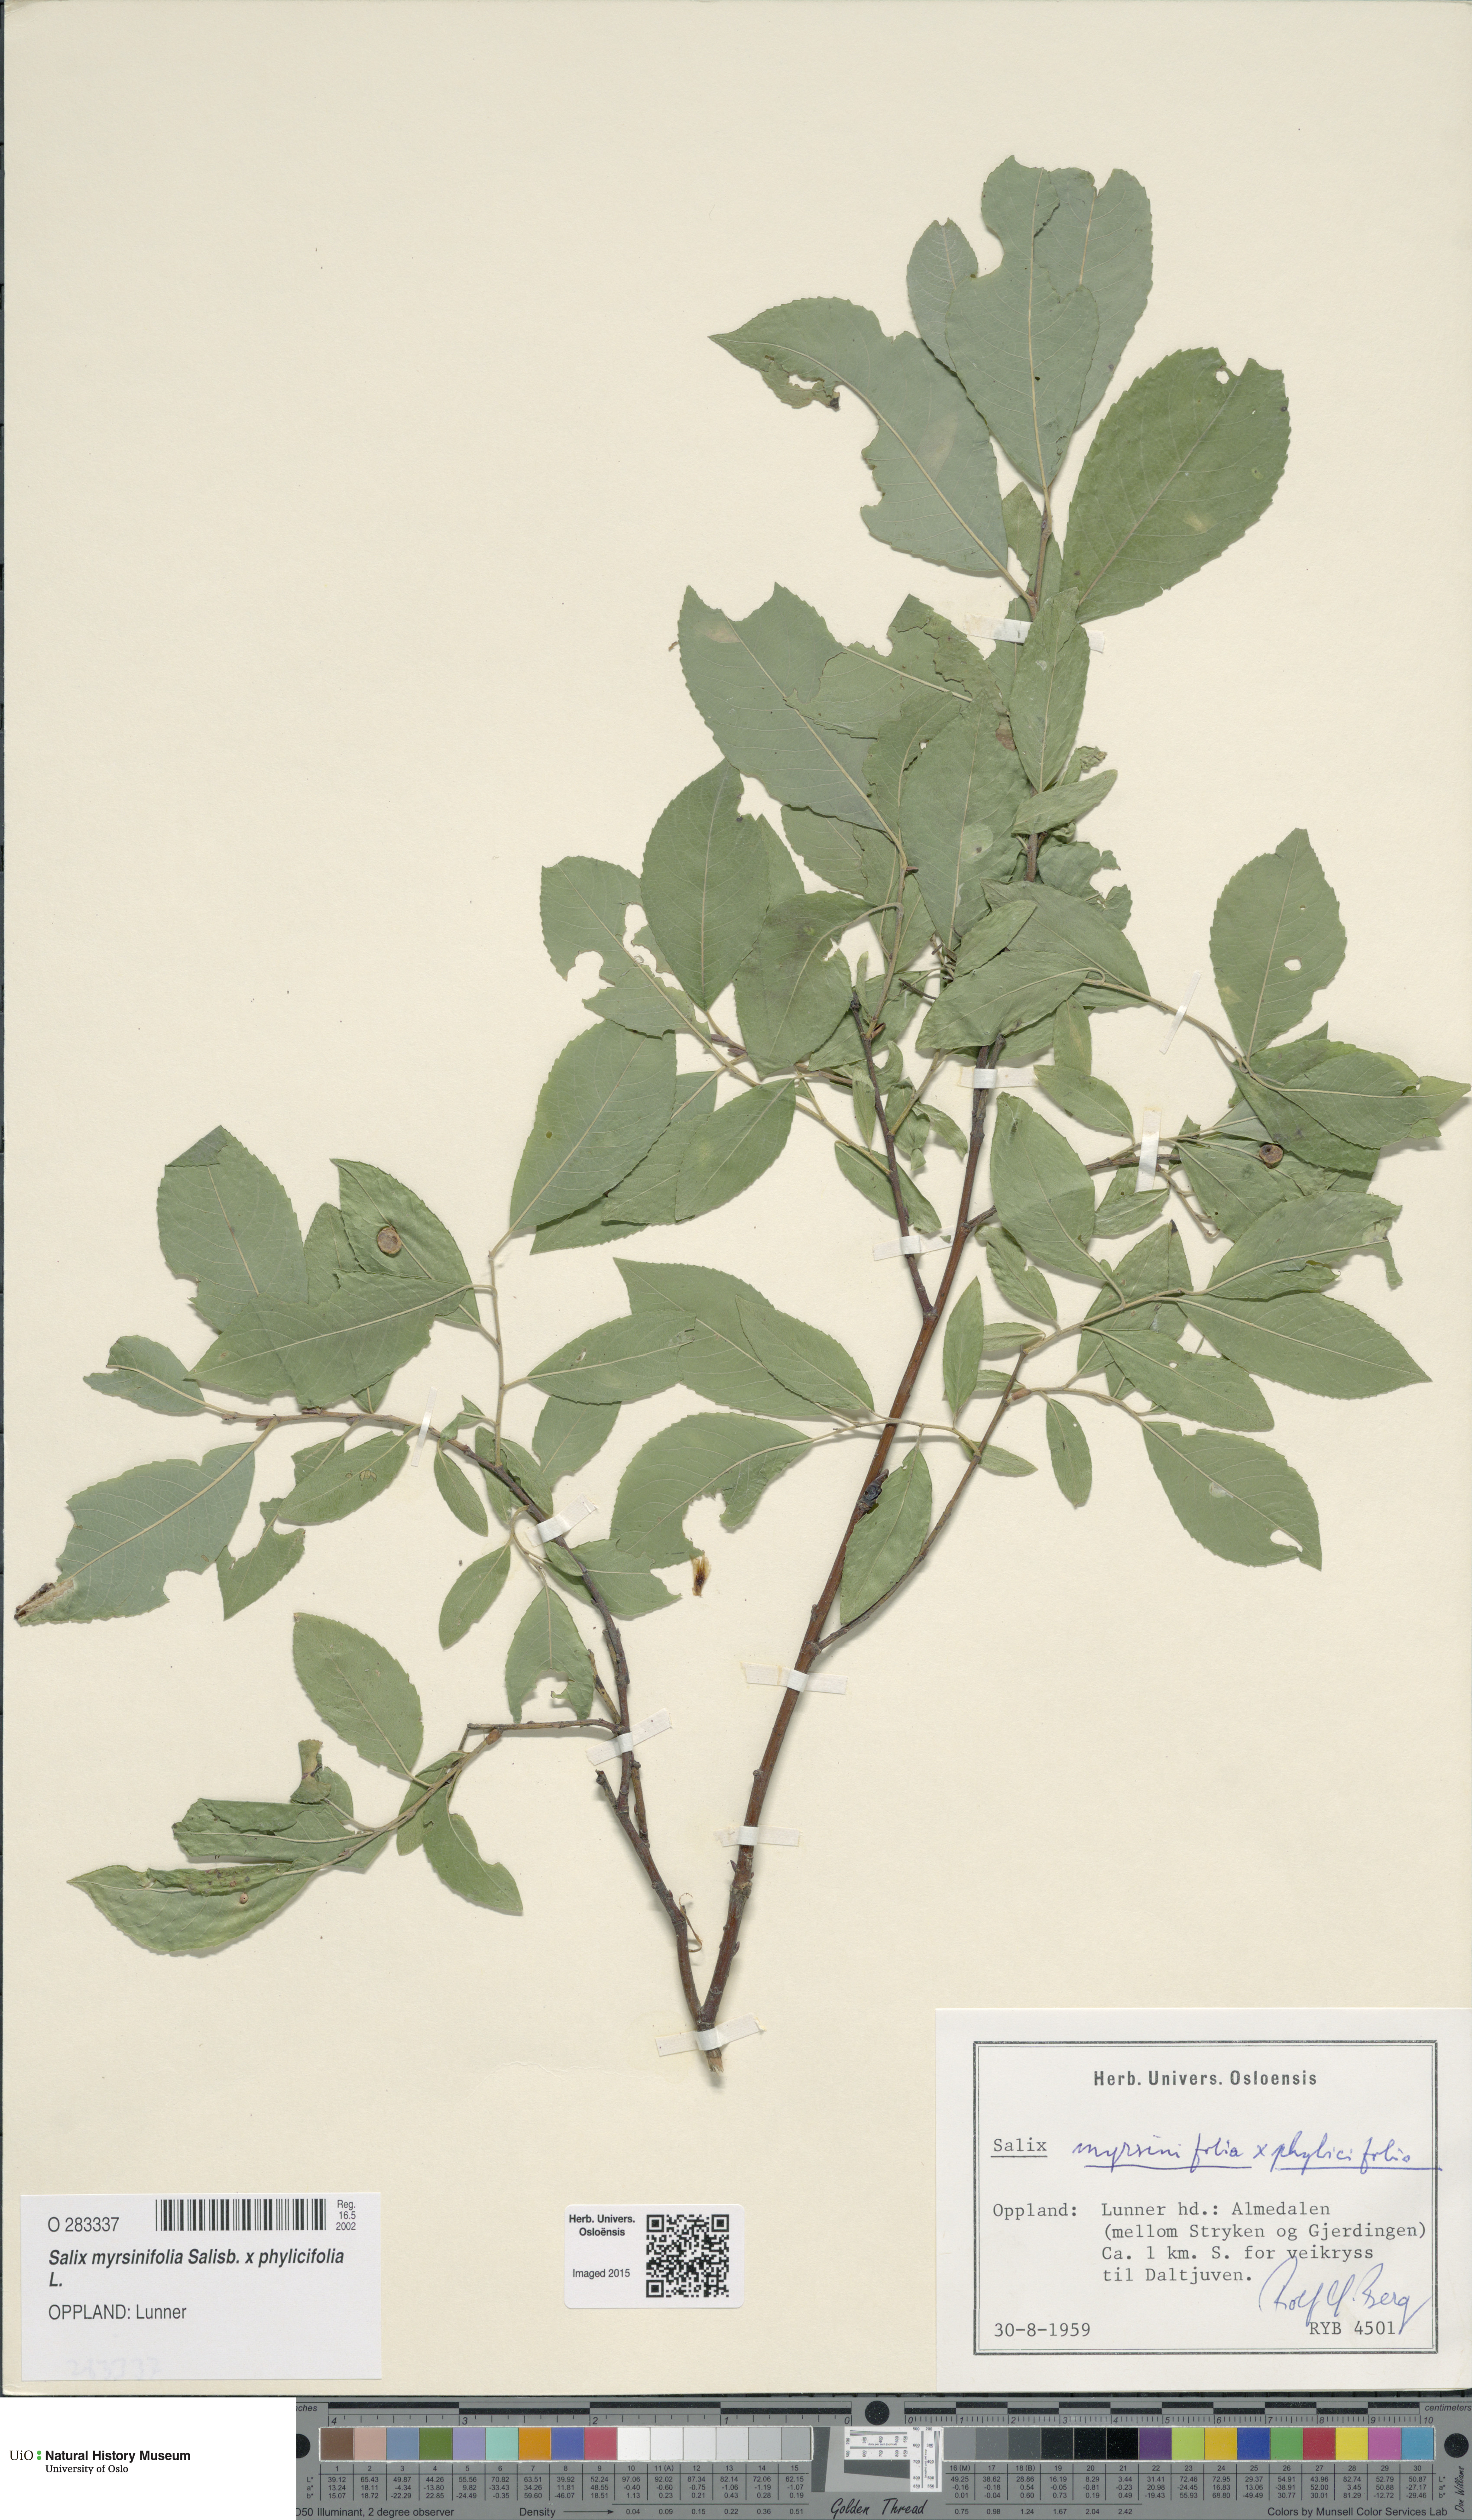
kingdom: Plantae
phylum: Tracheophyta
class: Magnoliopsida
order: Malpighiales
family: Salicaceae
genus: Salix
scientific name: Salix
